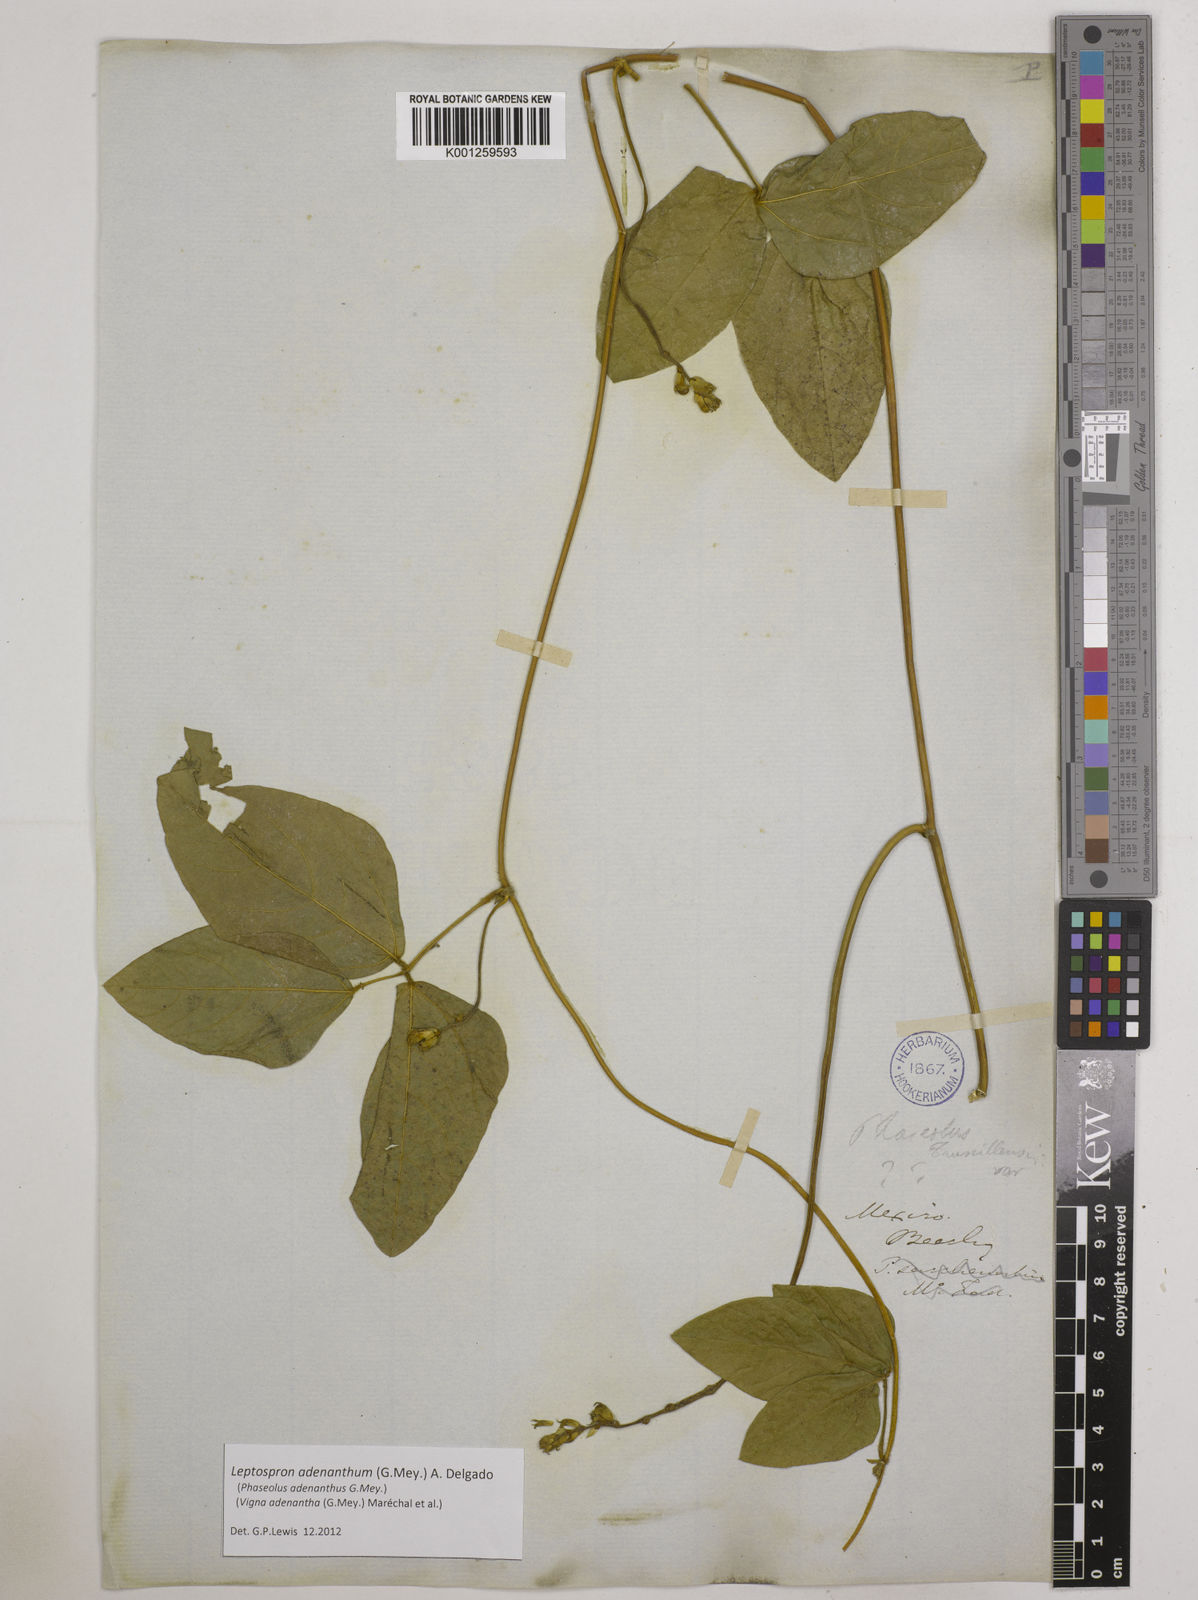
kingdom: Plantae
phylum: Tracheophyta
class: Magnoliopsida
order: Fabales
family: Fabaceae
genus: Leptospron
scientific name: Leptospron adenanthum
